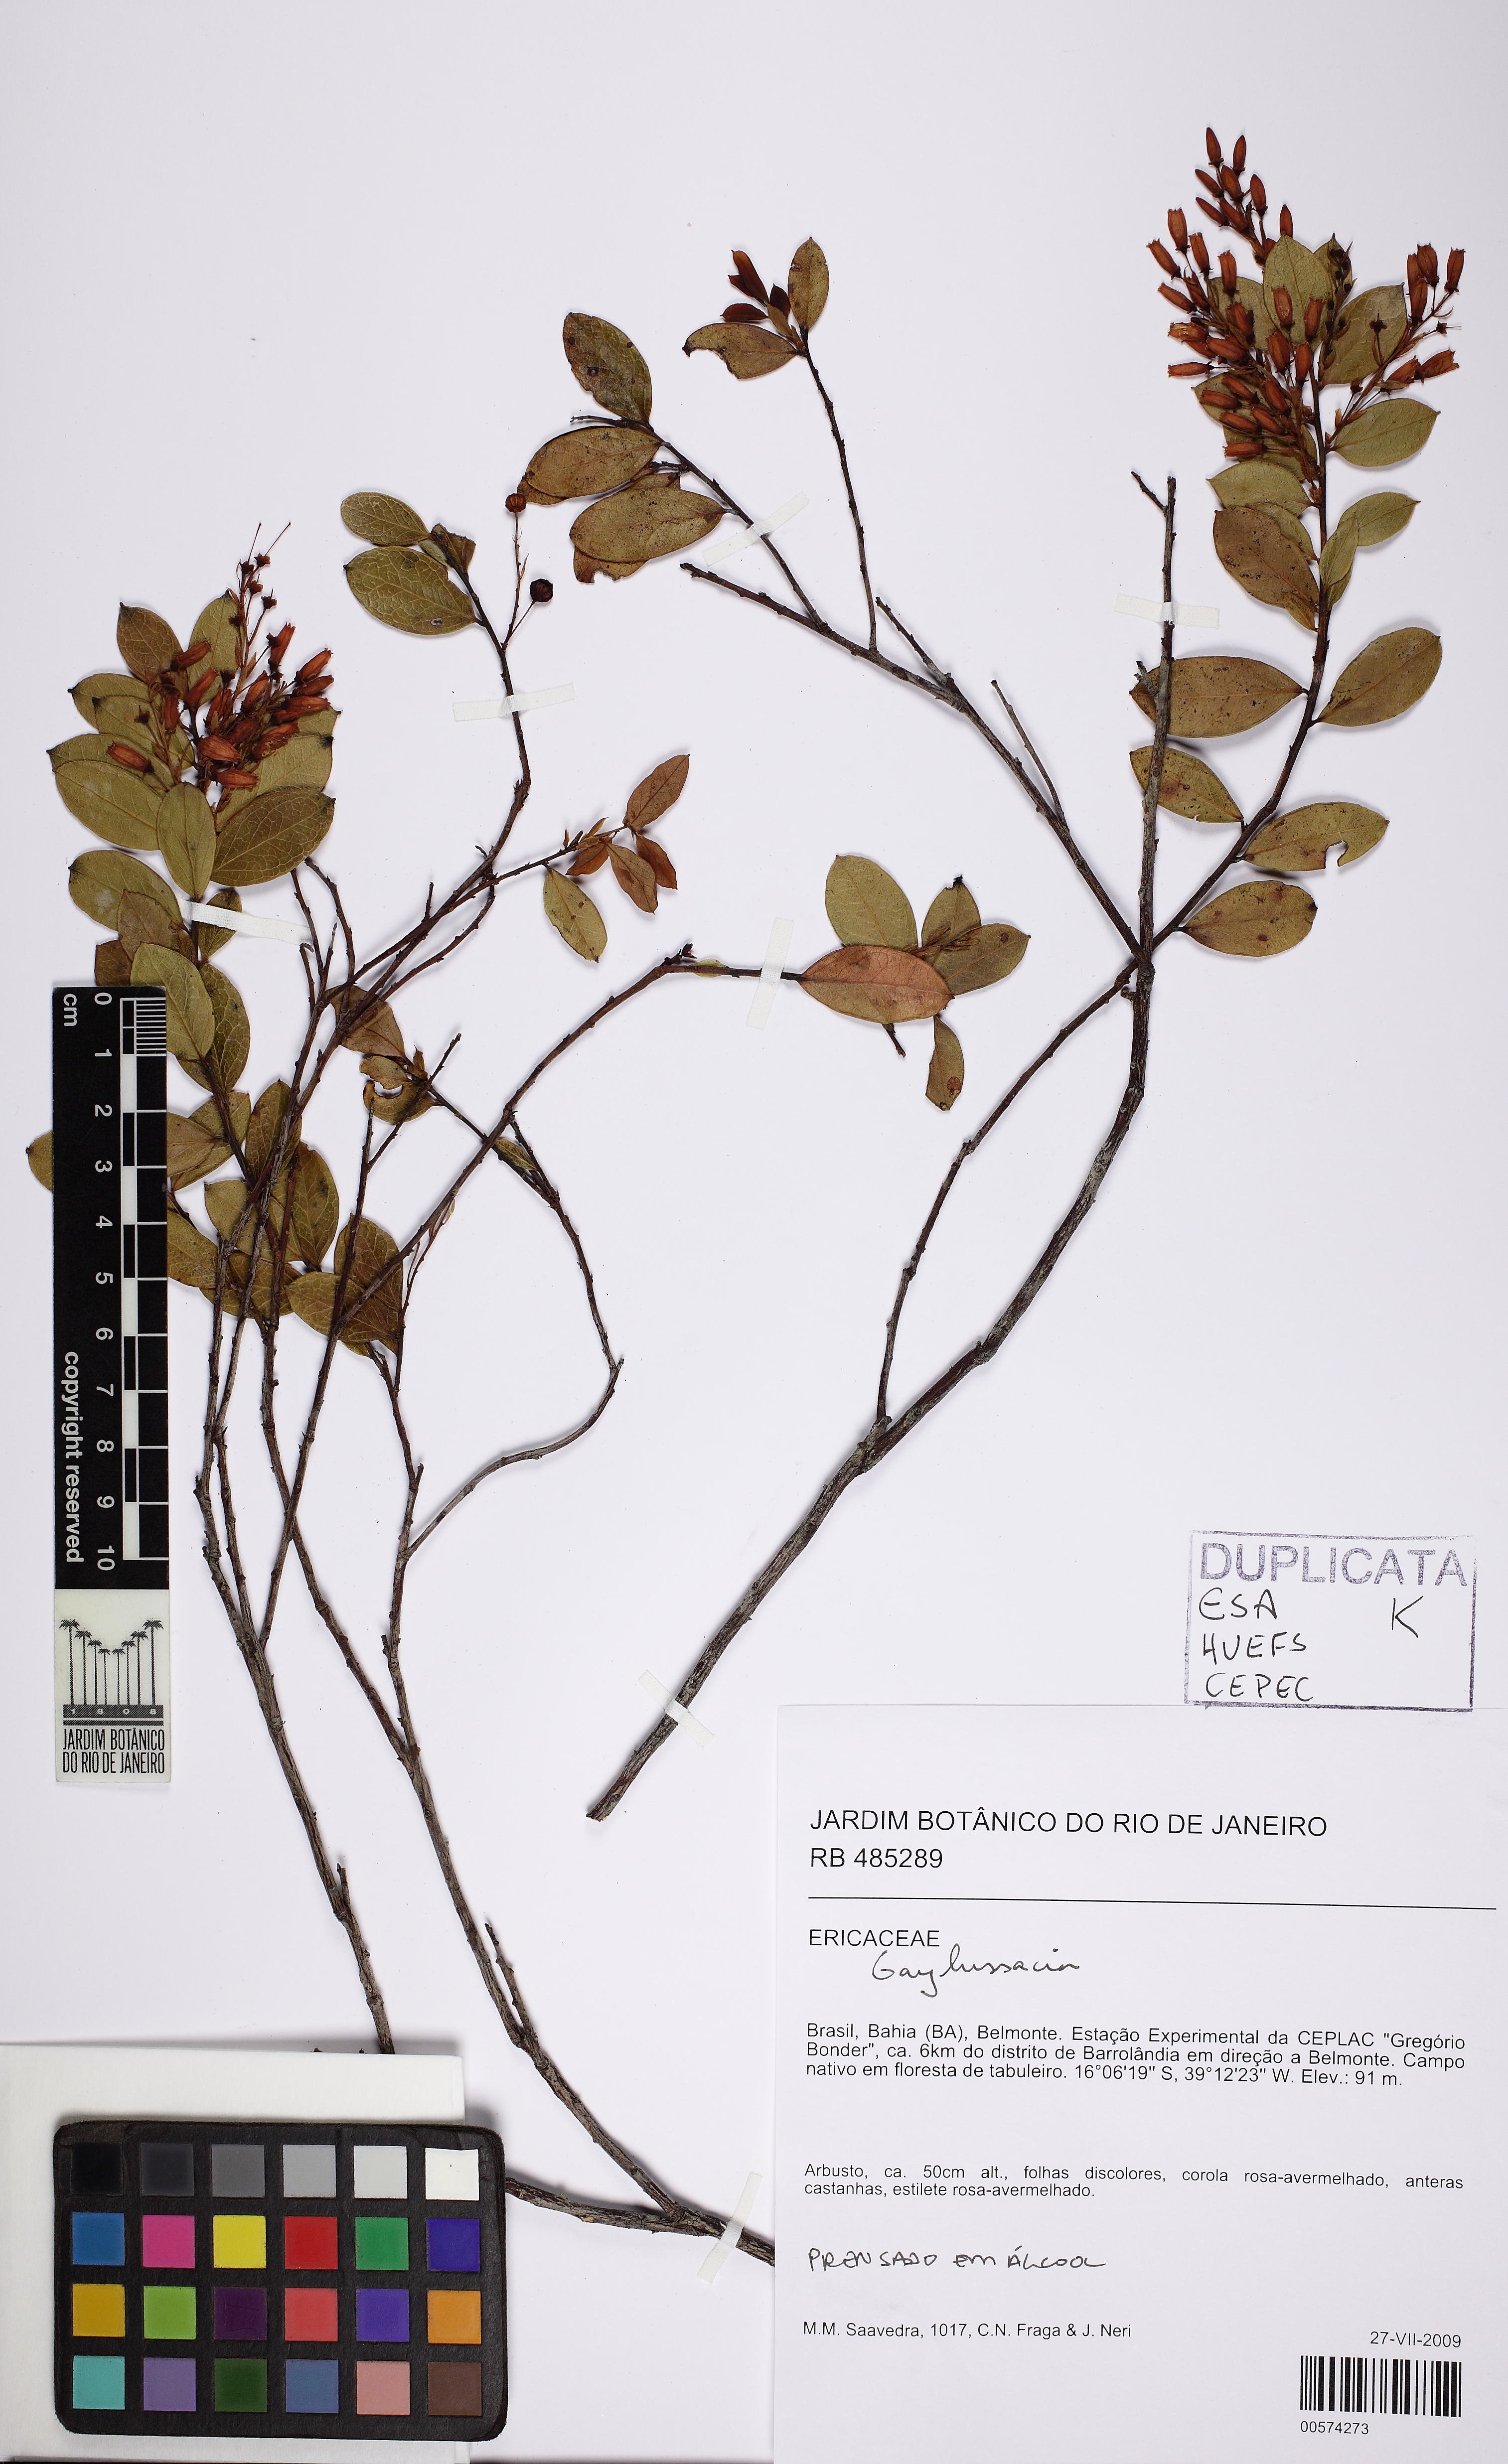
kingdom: Plantae
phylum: Tracheophyta
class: Magnoliopsida
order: Ericales
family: Ericaceae
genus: Gaylussacia
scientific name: Gaylussacia
